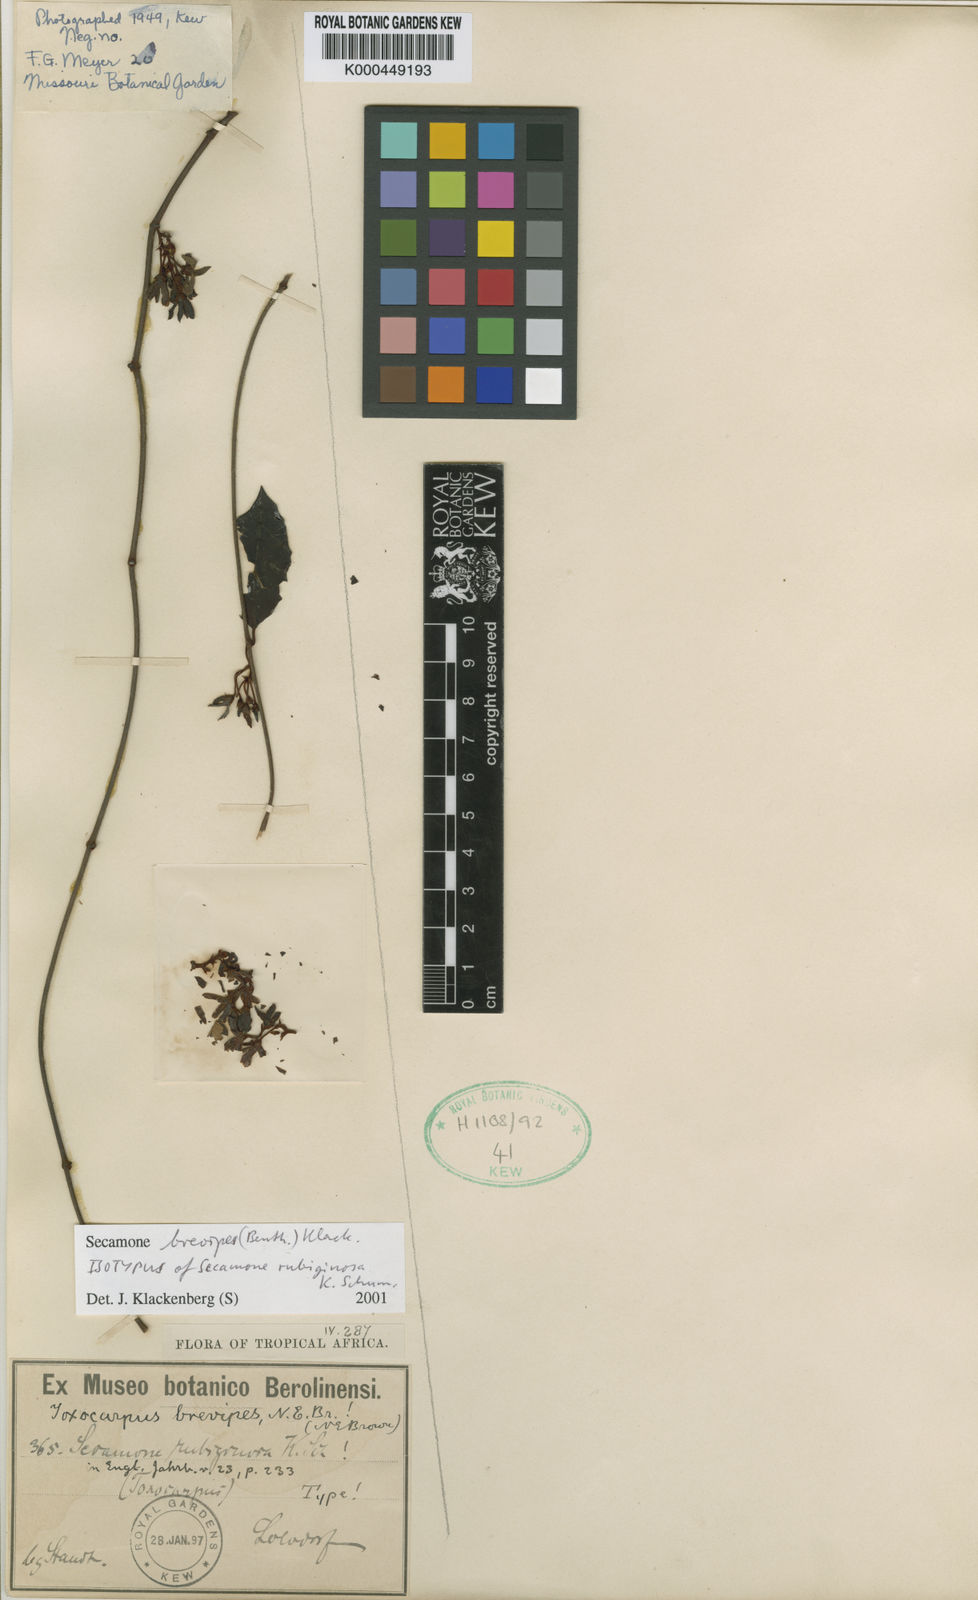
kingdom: Plantae
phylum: Tracheophyta
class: Magnoliopsida
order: Gentianales
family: Apocynaceae
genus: Secamone
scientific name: Secamone brevipes
